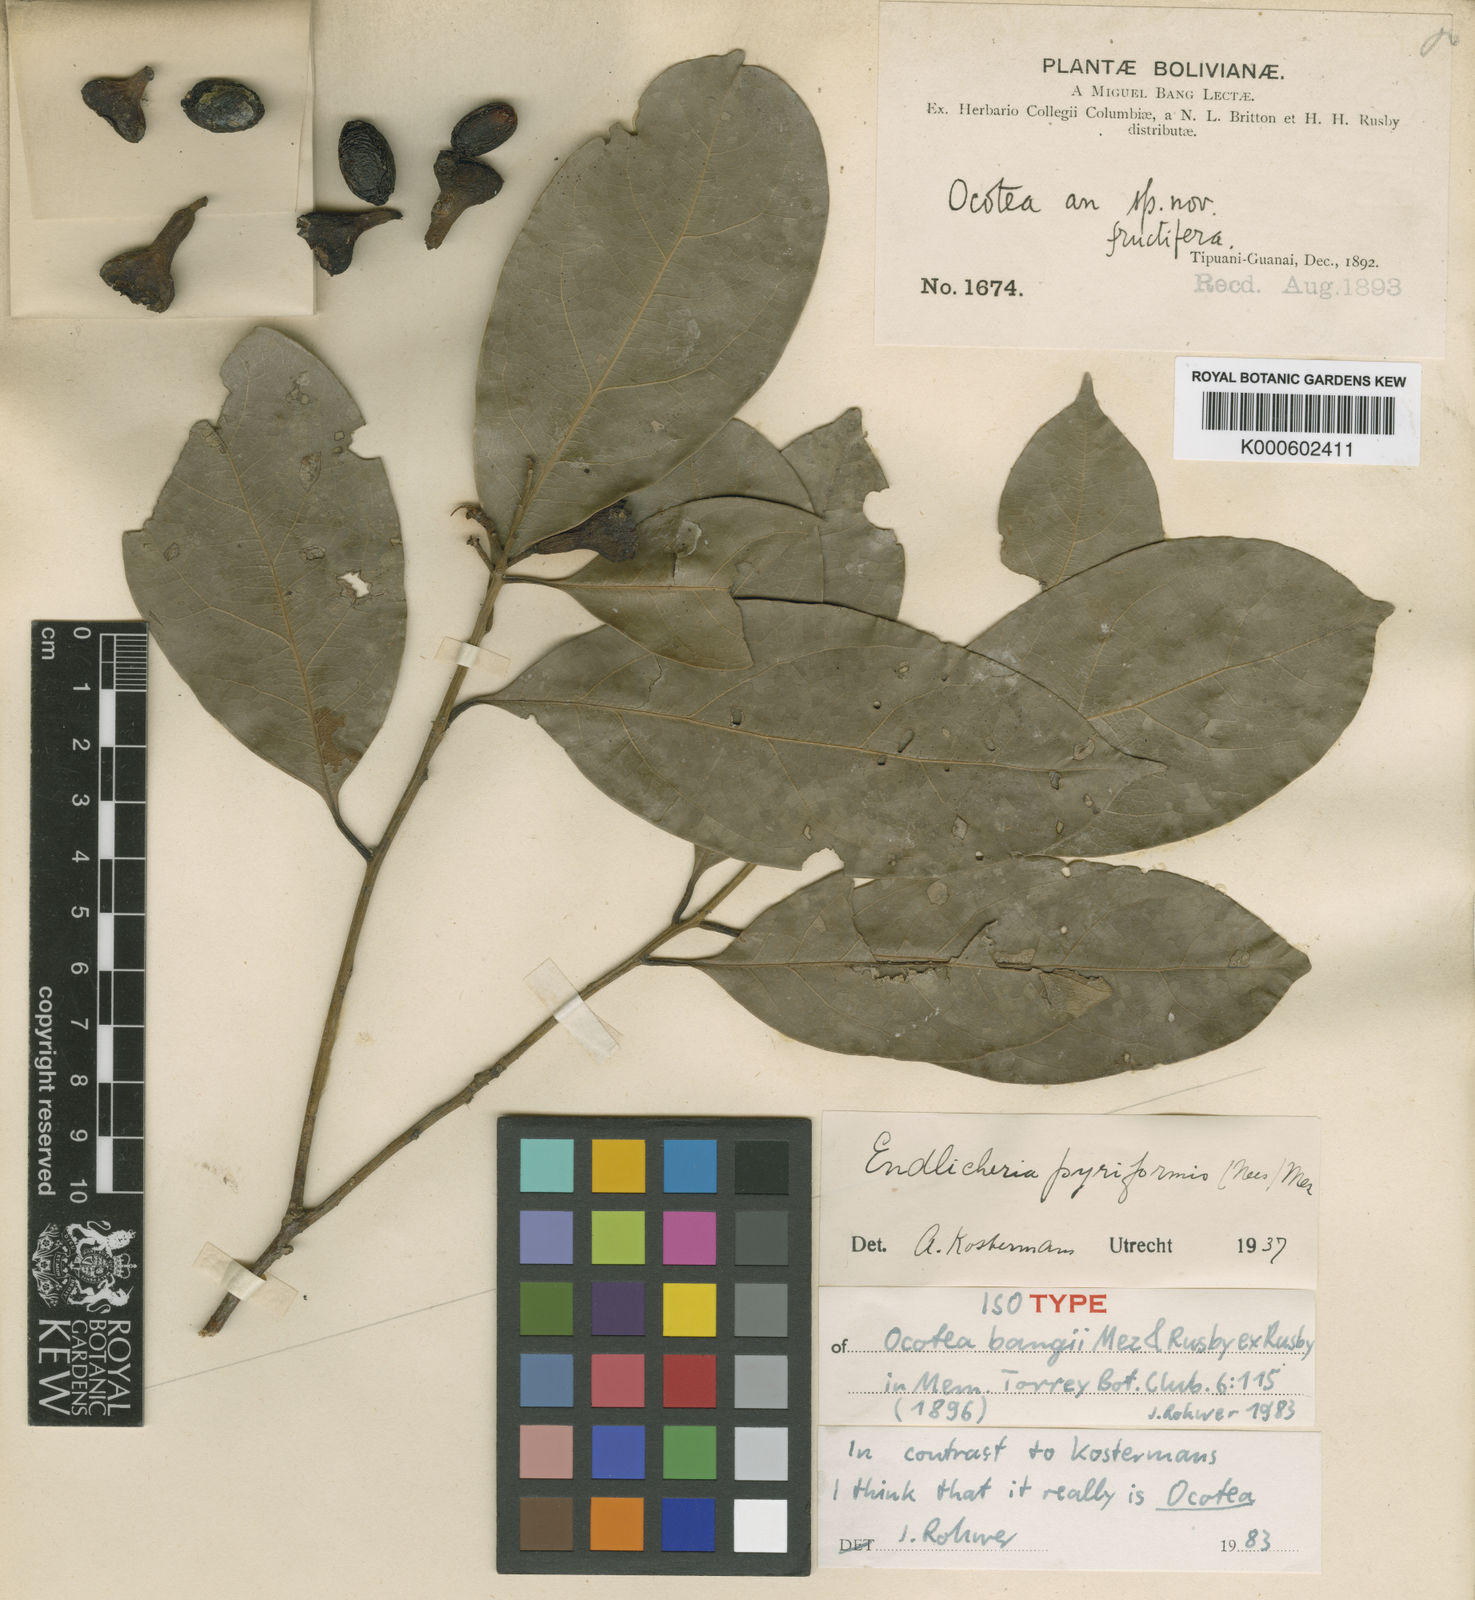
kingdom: Plantae
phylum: Tracheophyta
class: Magnoliopsida
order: Laurales
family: Lauraceae
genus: Ocotea
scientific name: Ocotea bangii
